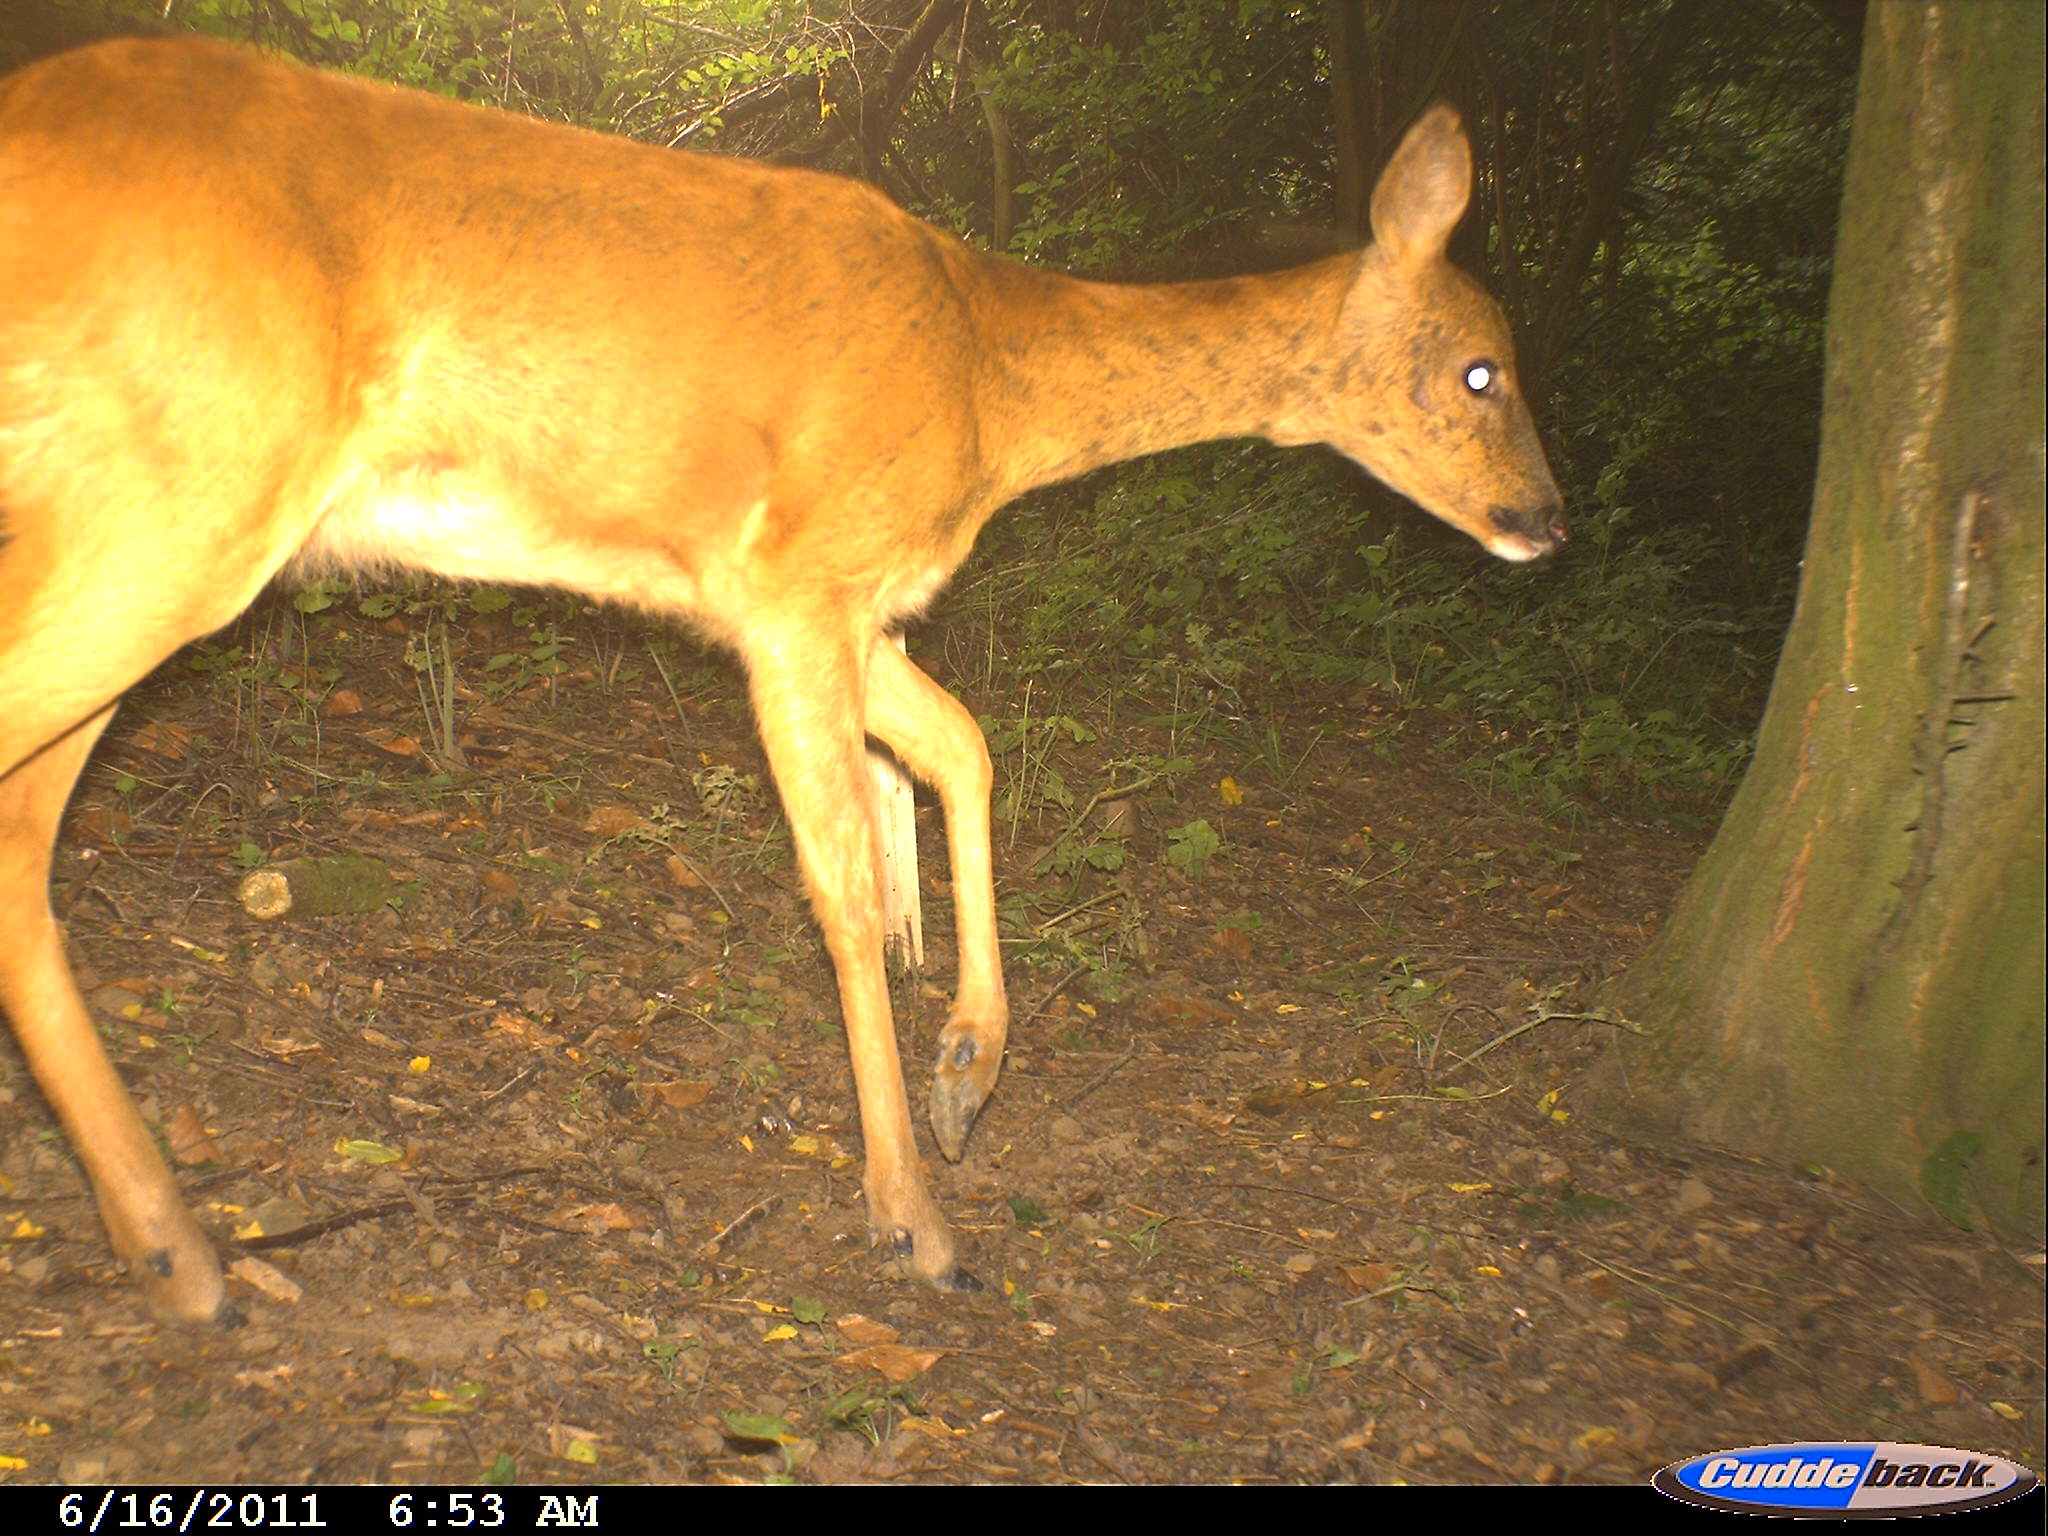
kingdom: Animalia
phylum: Chordata
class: Mammalia
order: Artiodactyla
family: Cervidae
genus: Capreolus
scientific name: Capreolus capreolus
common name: Western roe deer
